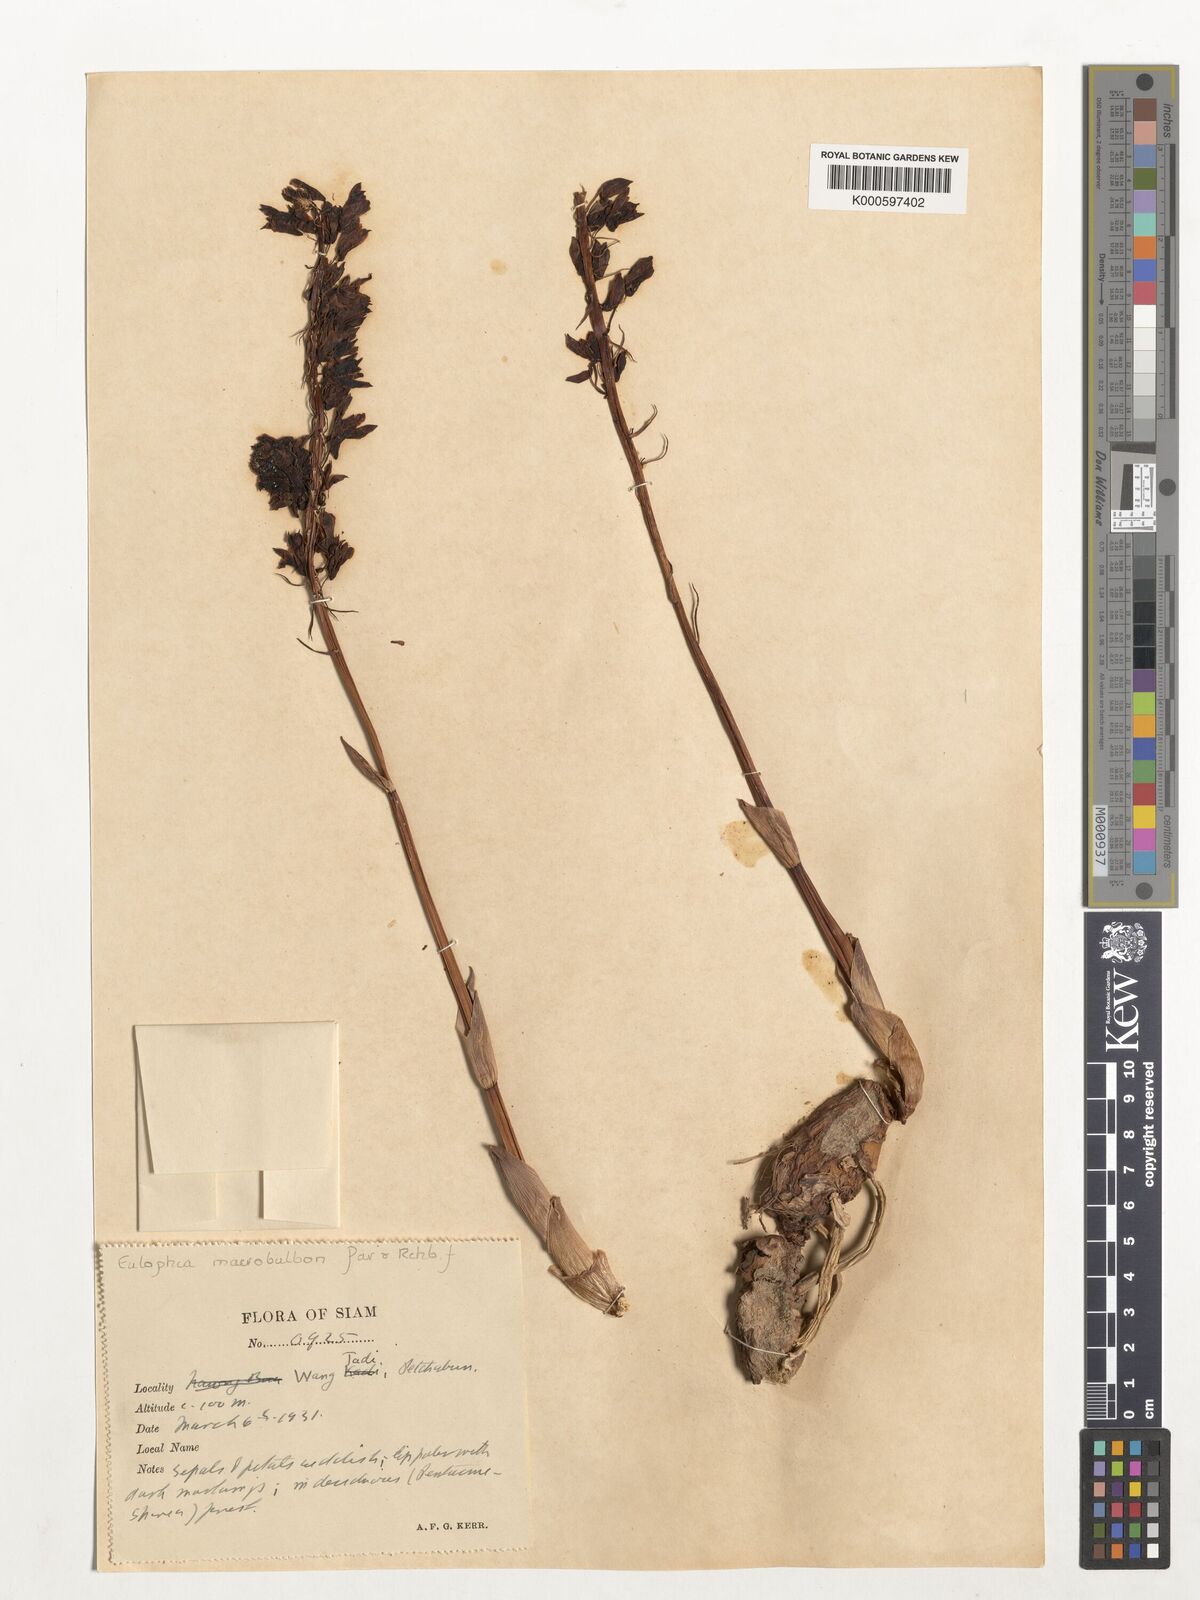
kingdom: Plantae
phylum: Tracheophyta
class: Liliopsida
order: Asparagales
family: Orchidaceae
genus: Eulophia
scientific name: Eulophia macrobulbon
